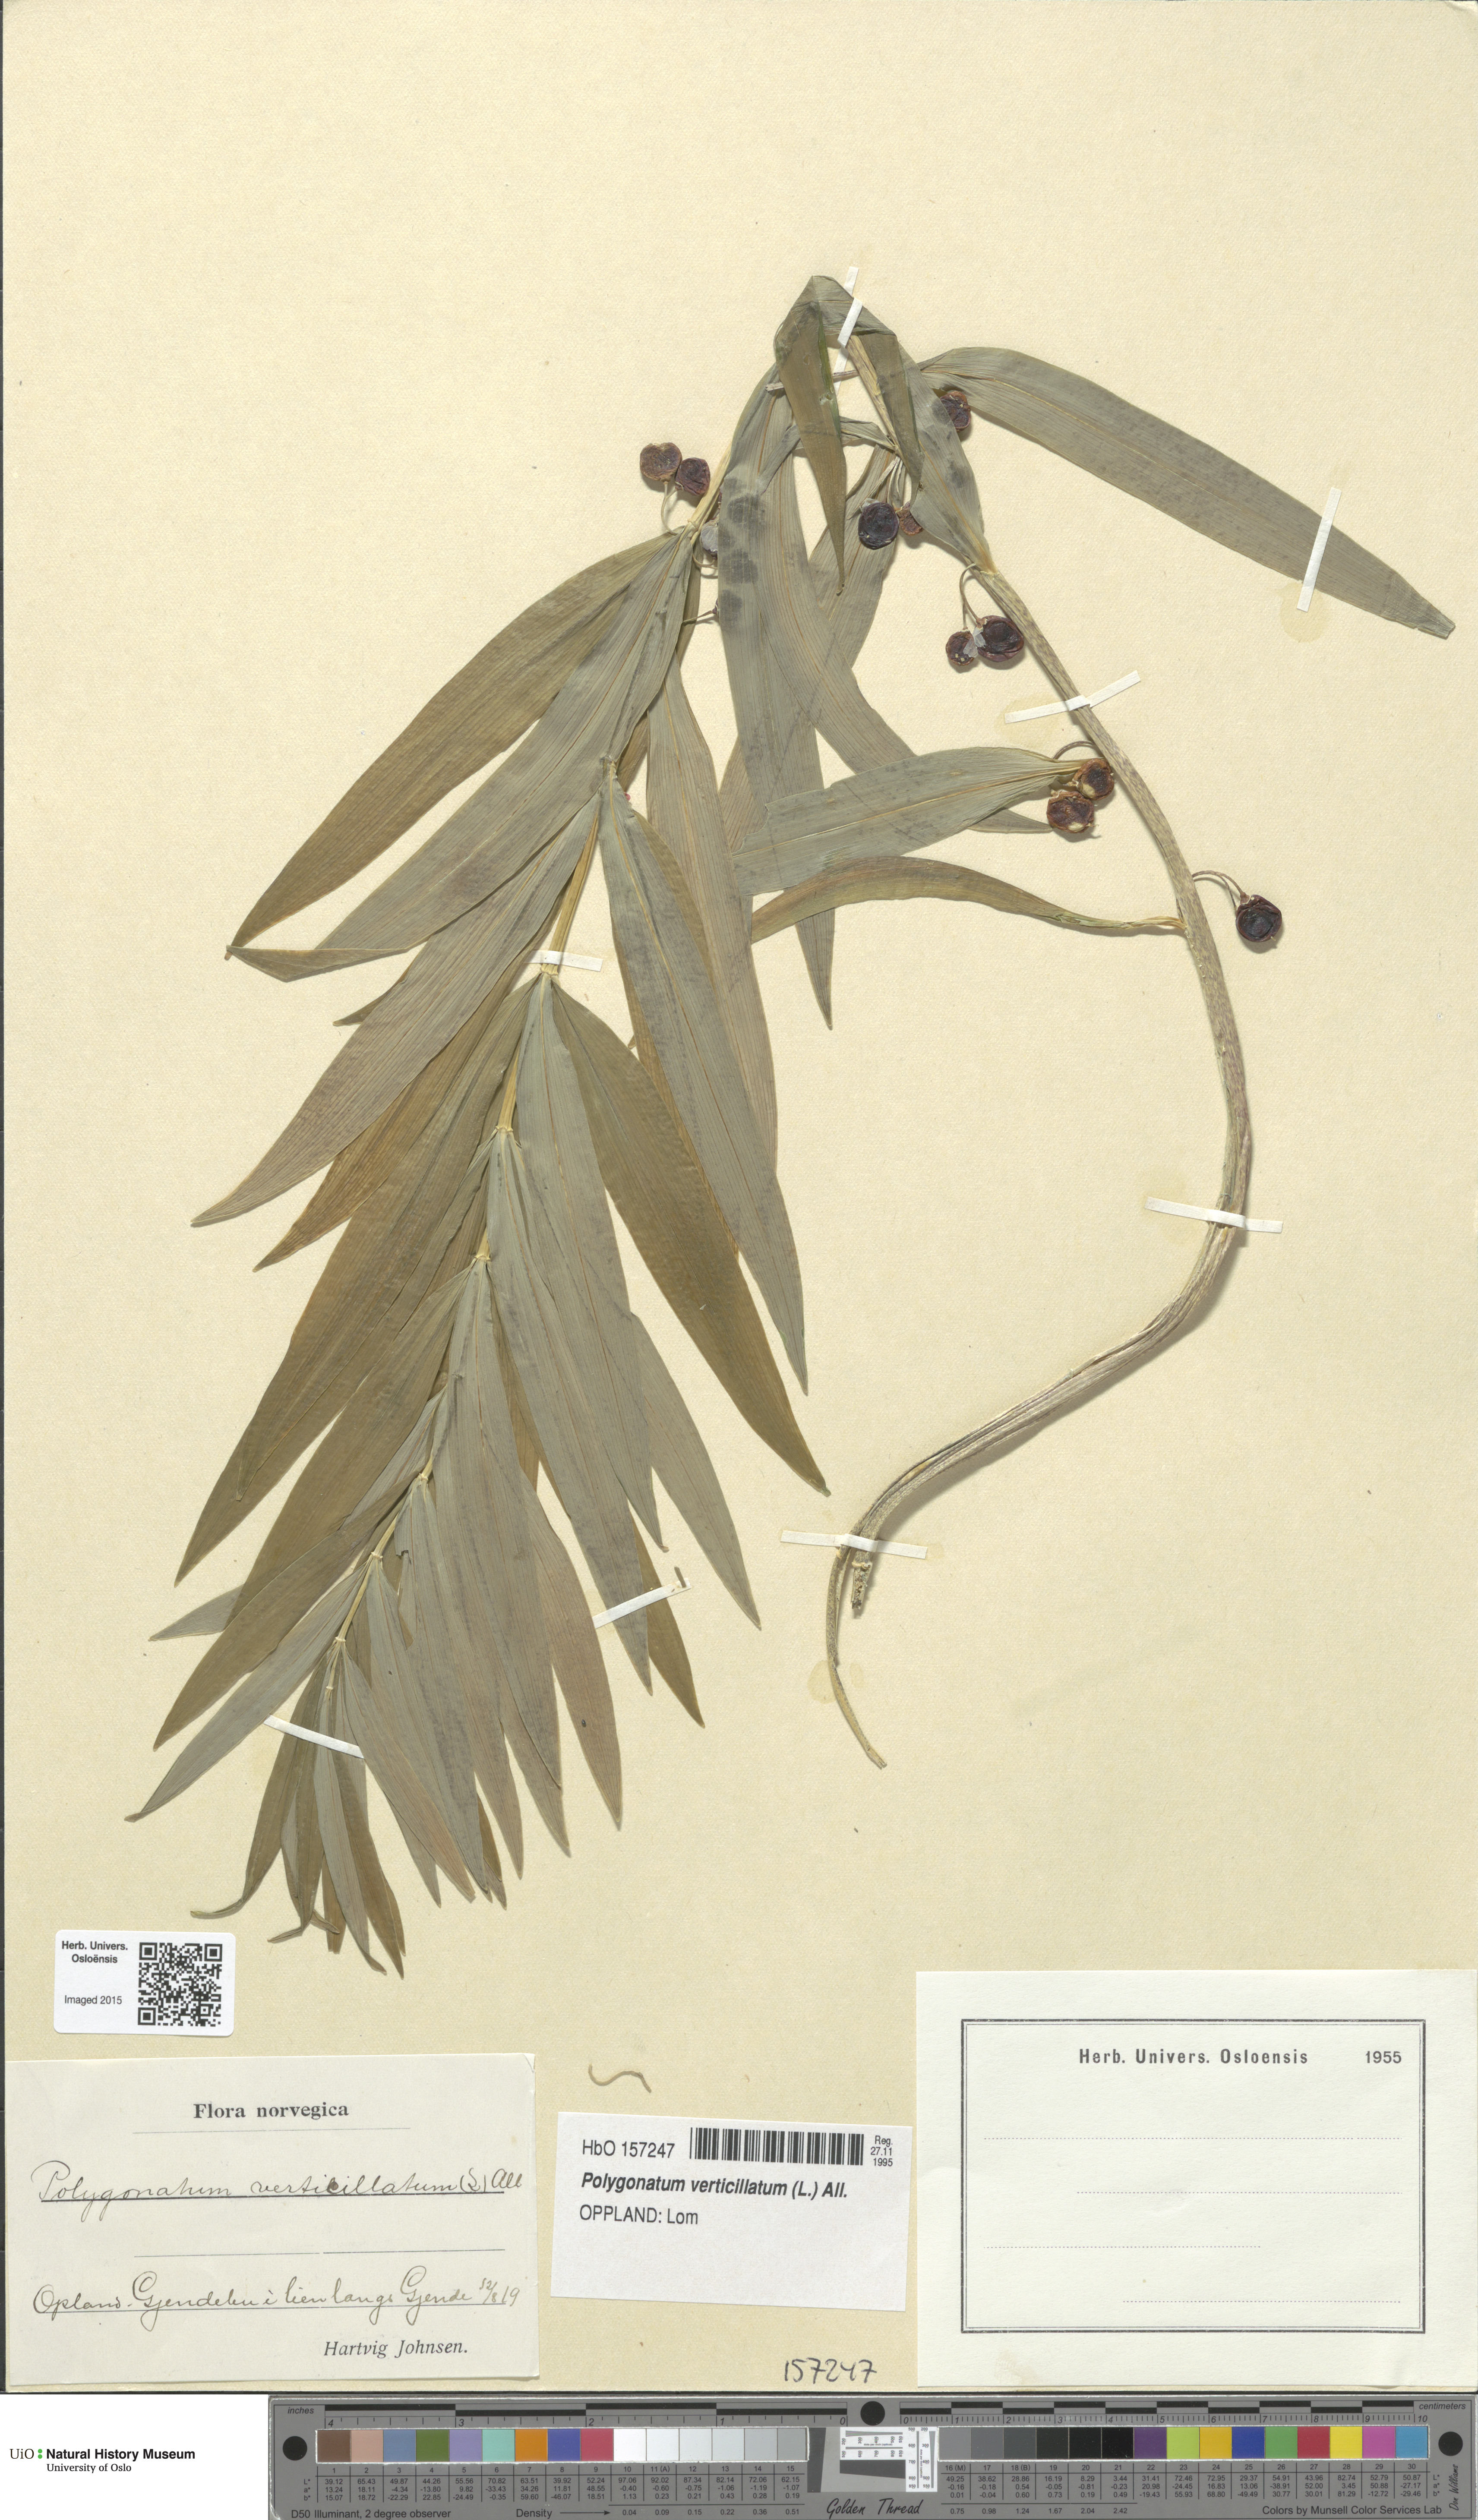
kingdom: Plantae
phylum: Tracheophyta
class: Liliopsida
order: Asparagales
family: Asparagaceae
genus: Polygonatum
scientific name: Polygonatum verticillatum
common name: Whorled solomon's-seal
